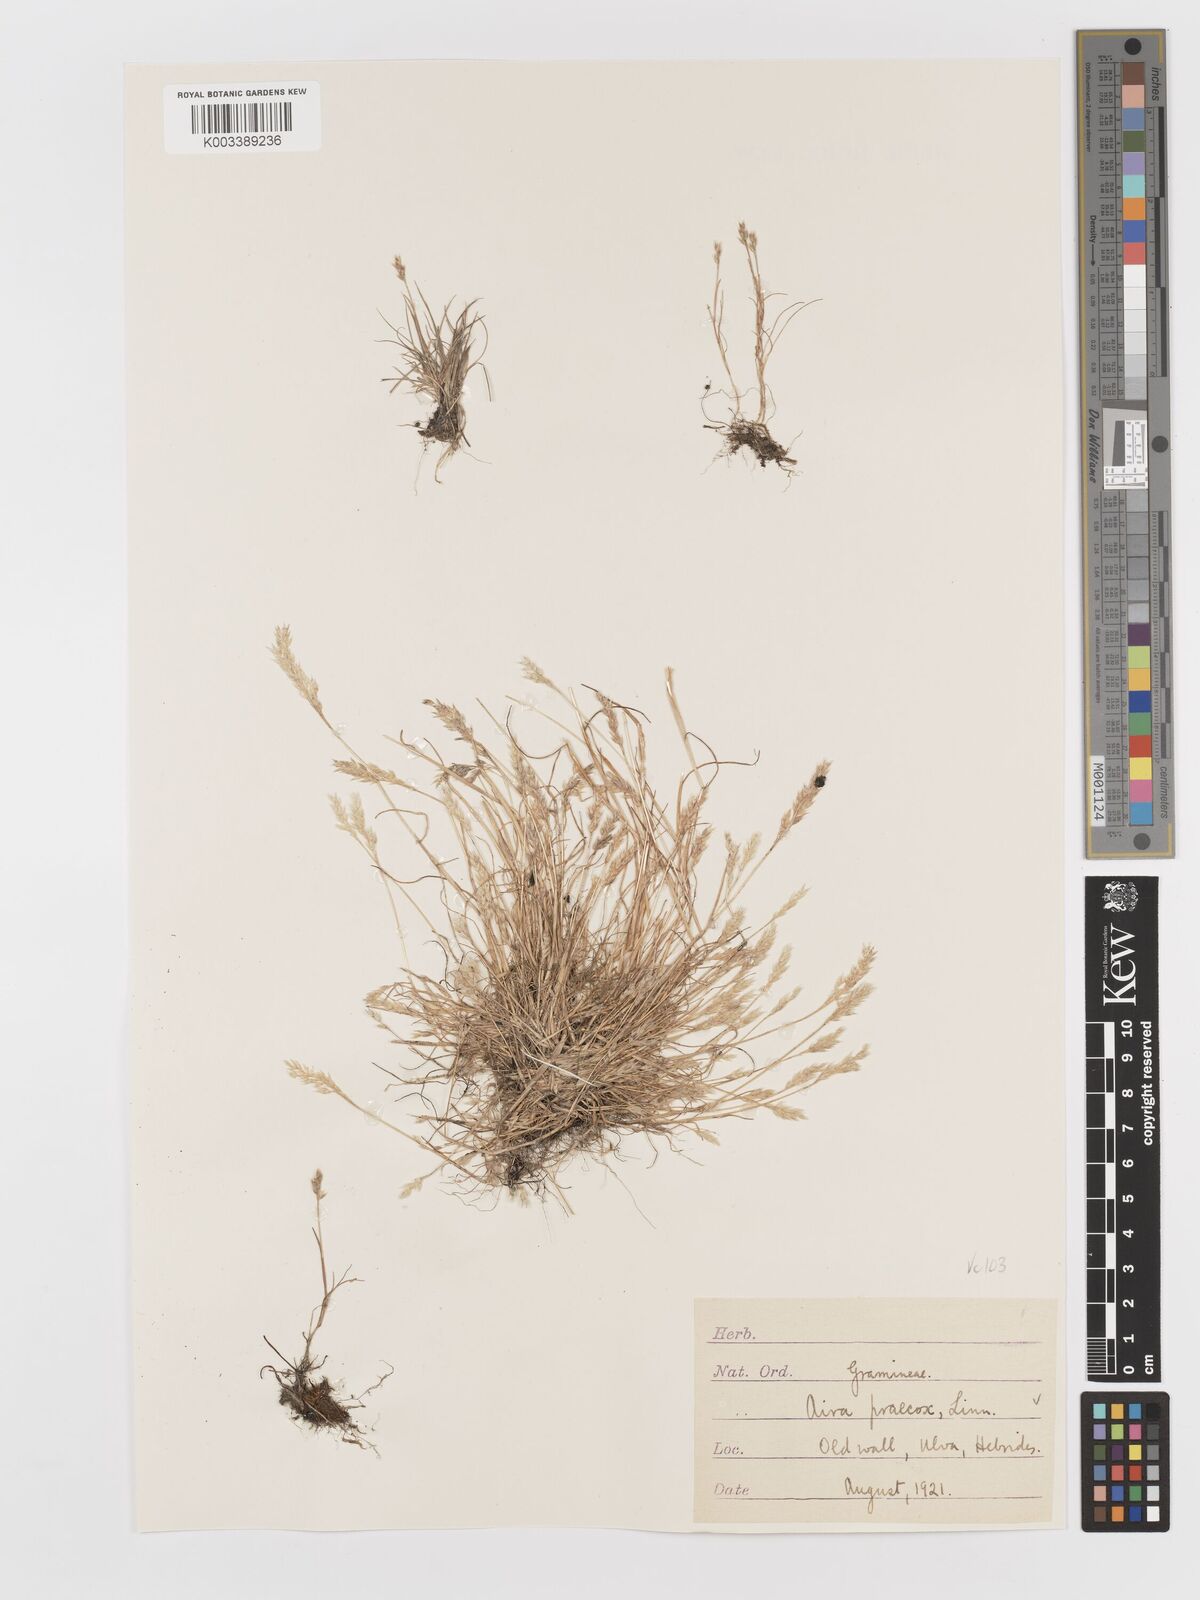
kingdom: Plantae
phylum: Tracheophyta
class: Liliopsida
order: Poales
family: Poaceae
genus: Aira
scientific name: Aira praecox
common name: Early hair-grass
